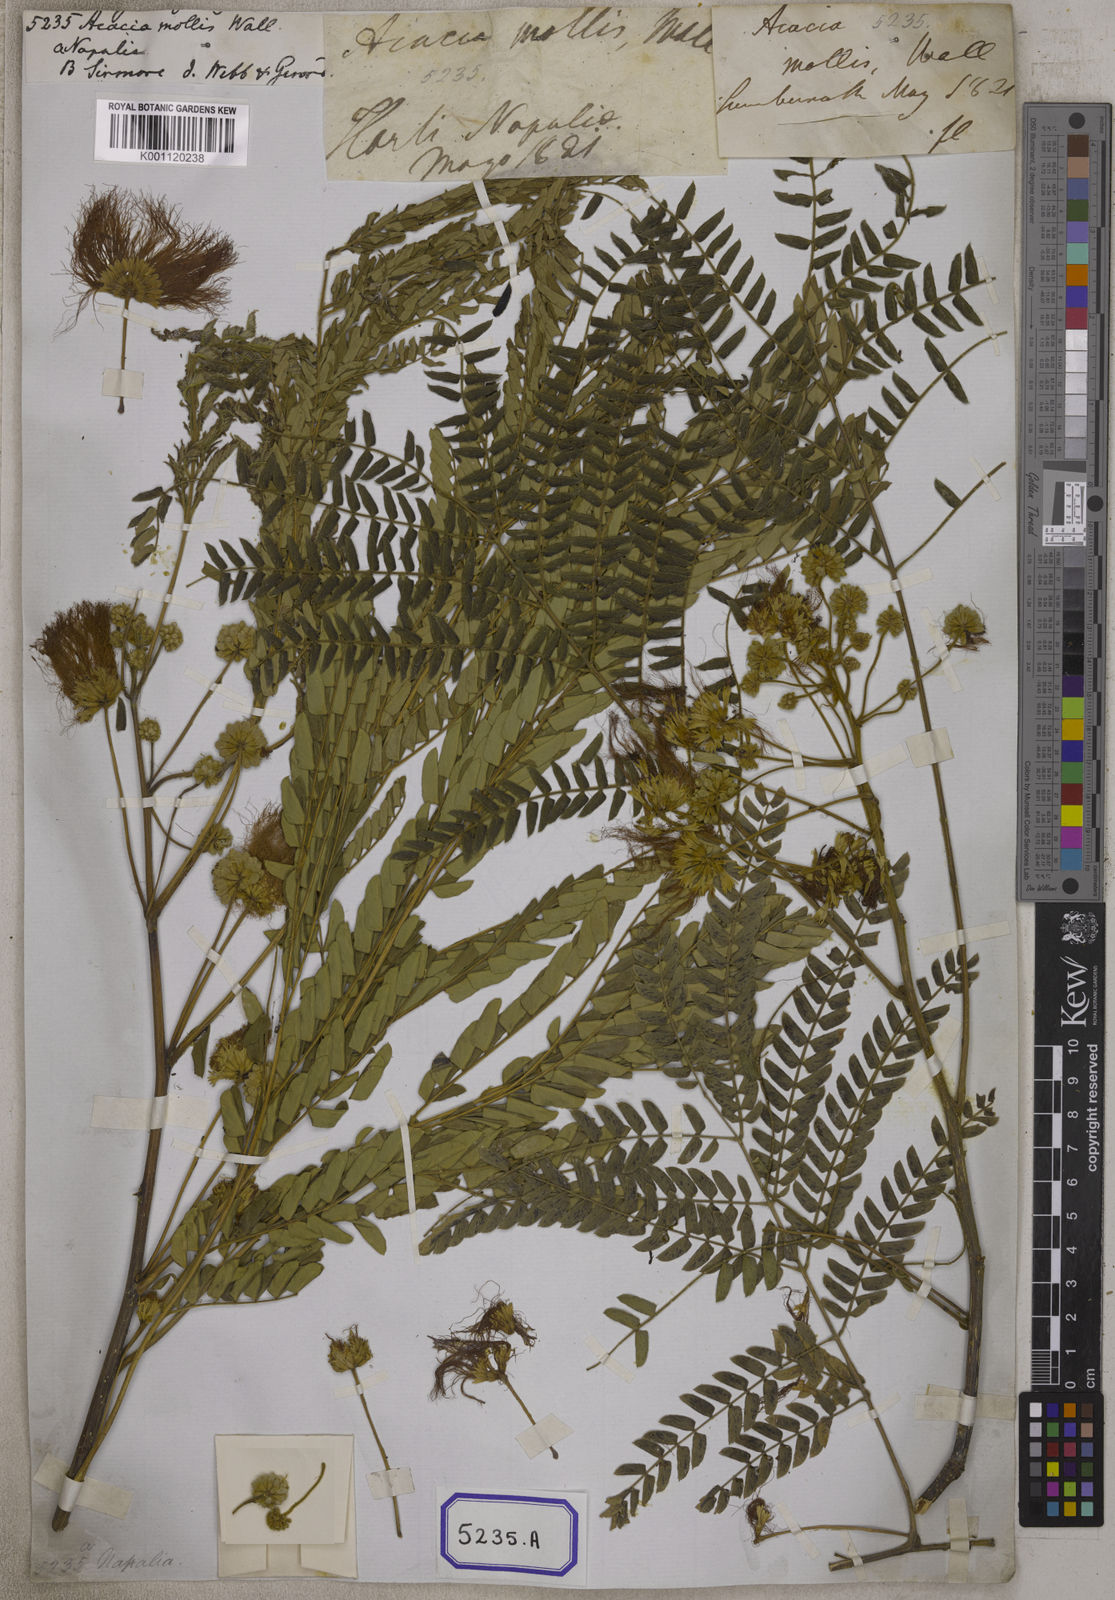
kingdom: Plantae
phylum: Tracheophyta
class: Magnoliopsida
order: Fabales
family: Fabaceae
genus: Albizia
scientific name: Albizia julibrissin
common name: Silktree
